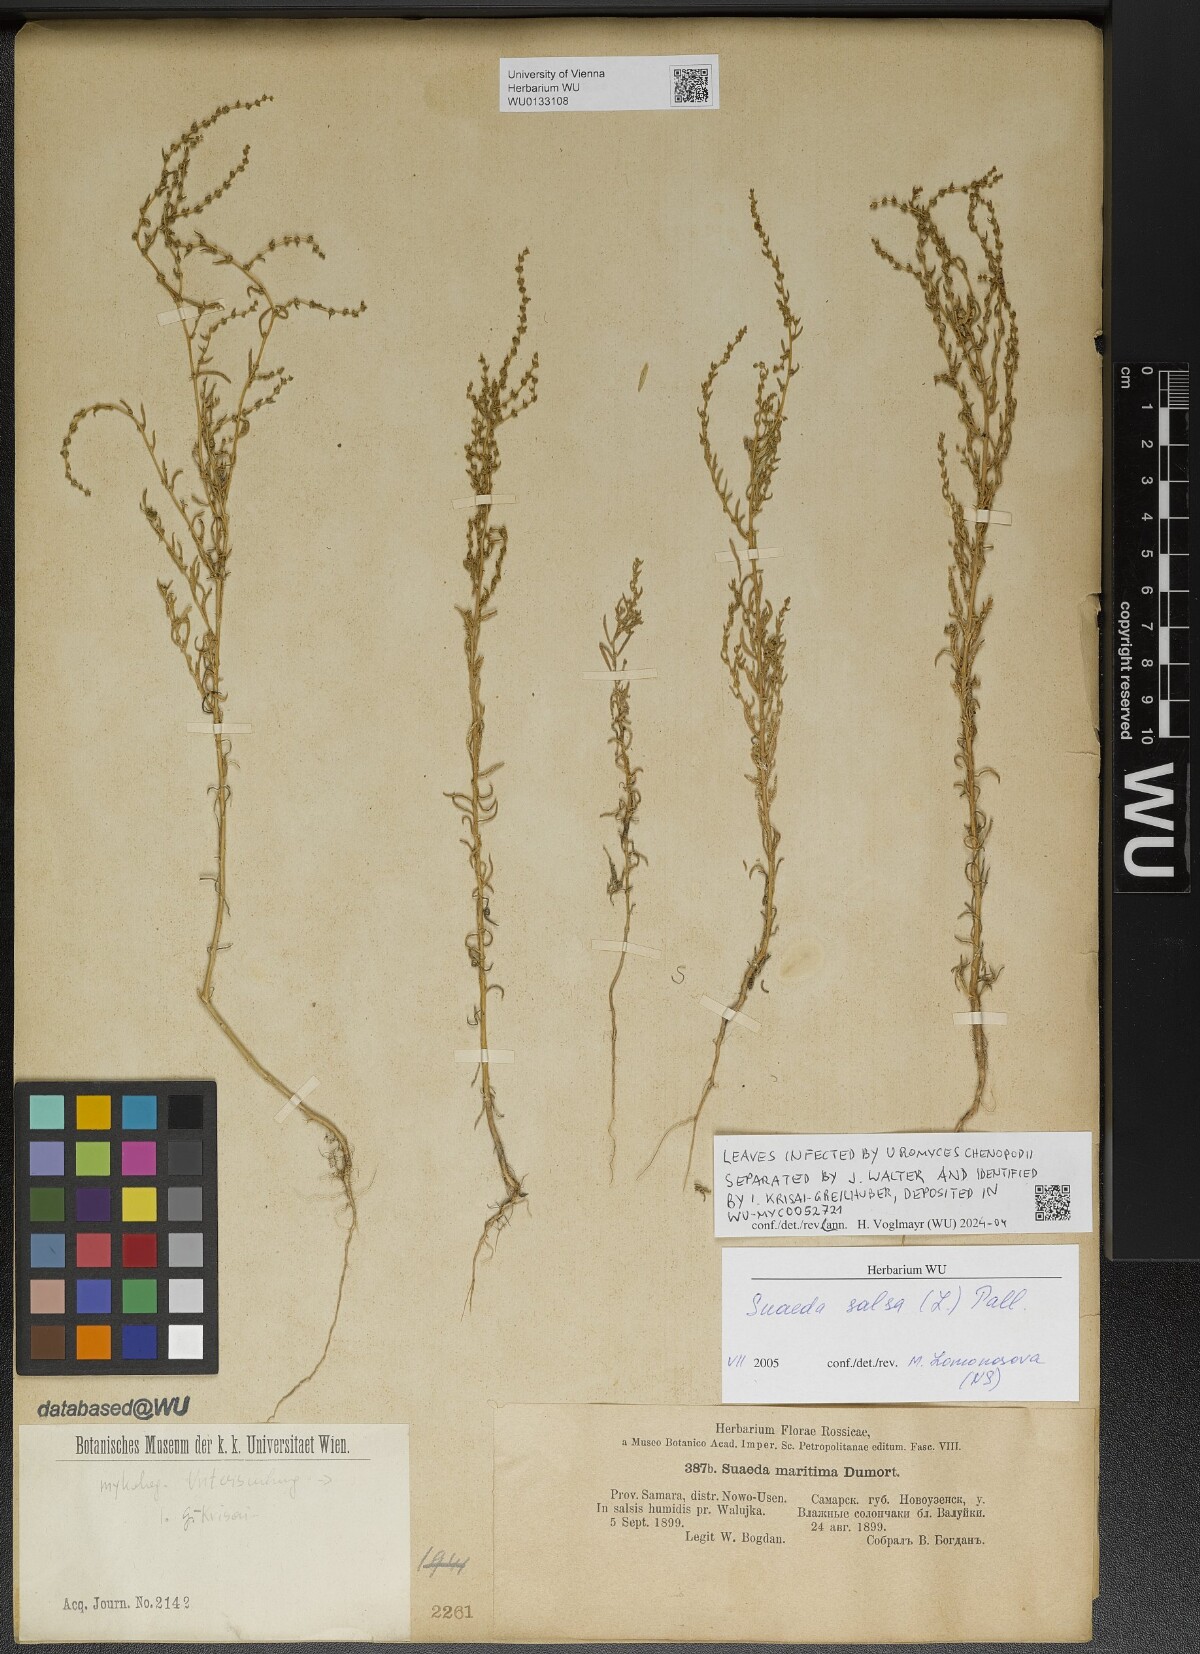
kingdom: Plantae
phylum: Tracheophyta
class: Magnoliopsida
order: Caryophyllales
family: Amaranthaceae
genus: Suaeda
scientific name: Suaeda salsa
